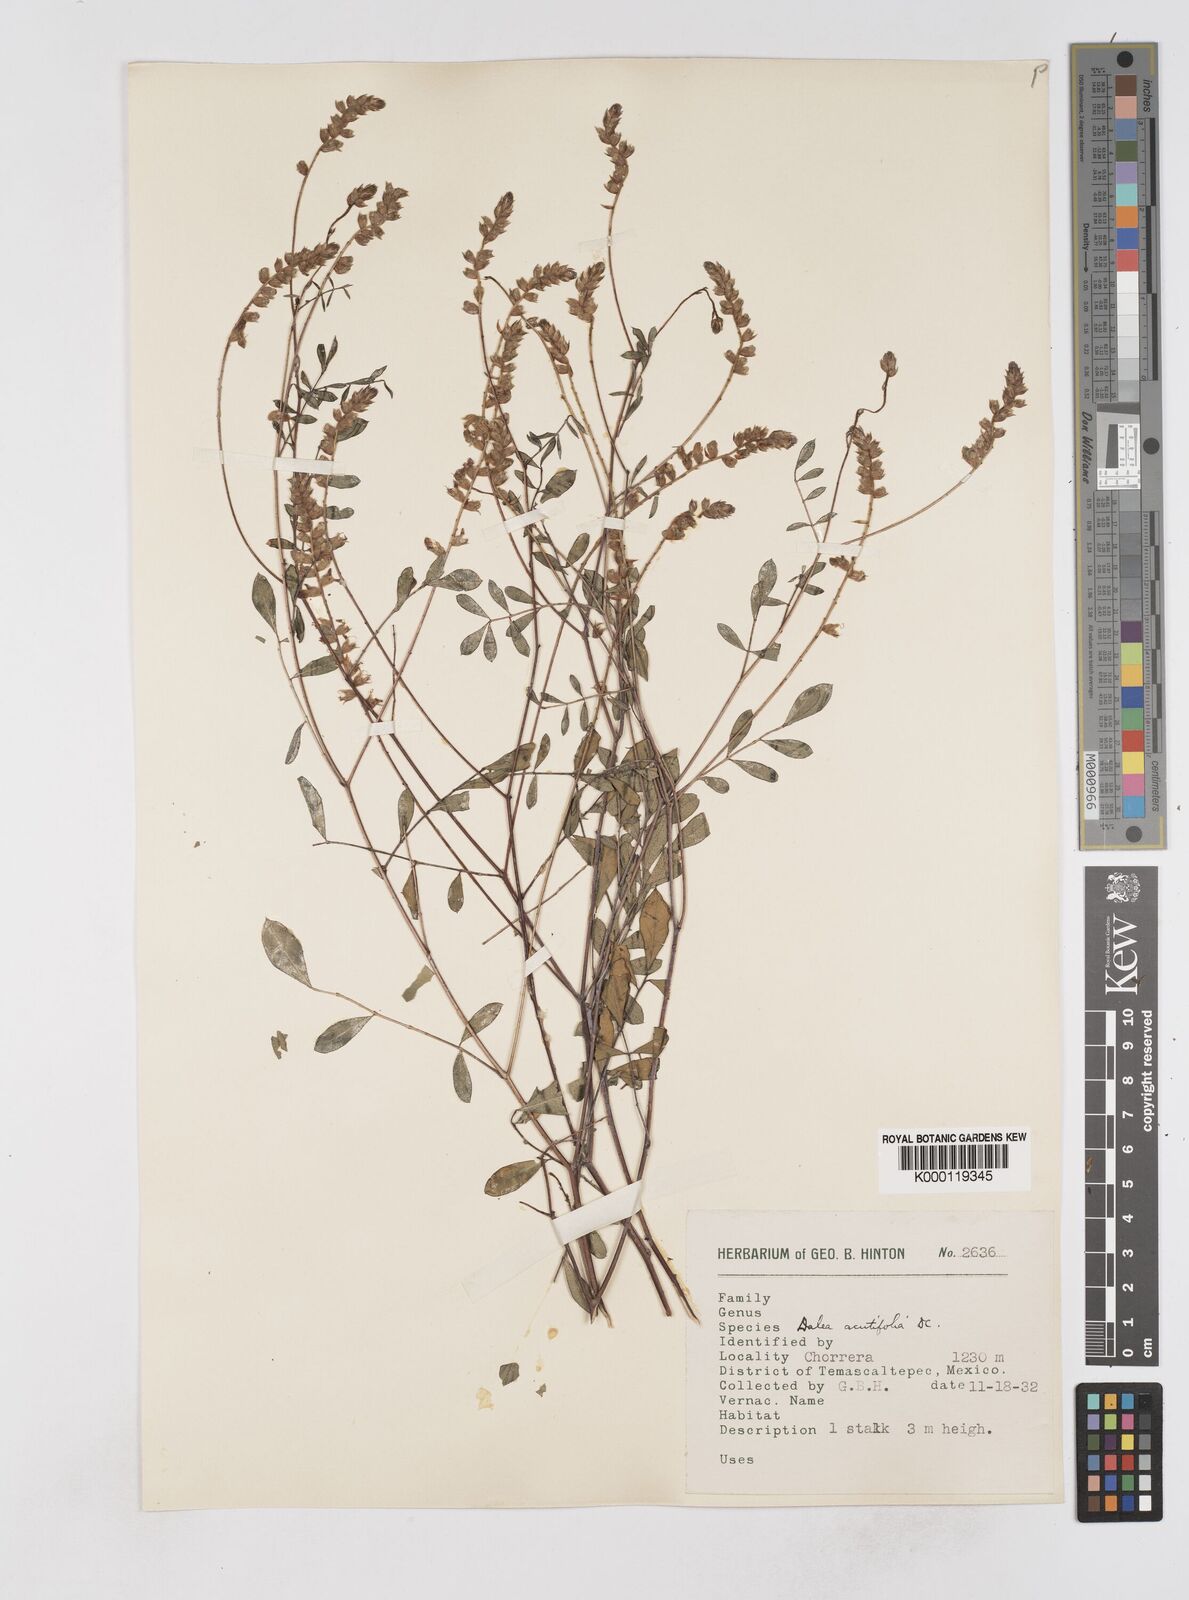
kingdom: Plantae
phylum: Tracheophyta
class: Magnoliopsida
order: Fabales
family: Fabaceae
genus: Dalea
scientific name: Dalea cliffortiana
